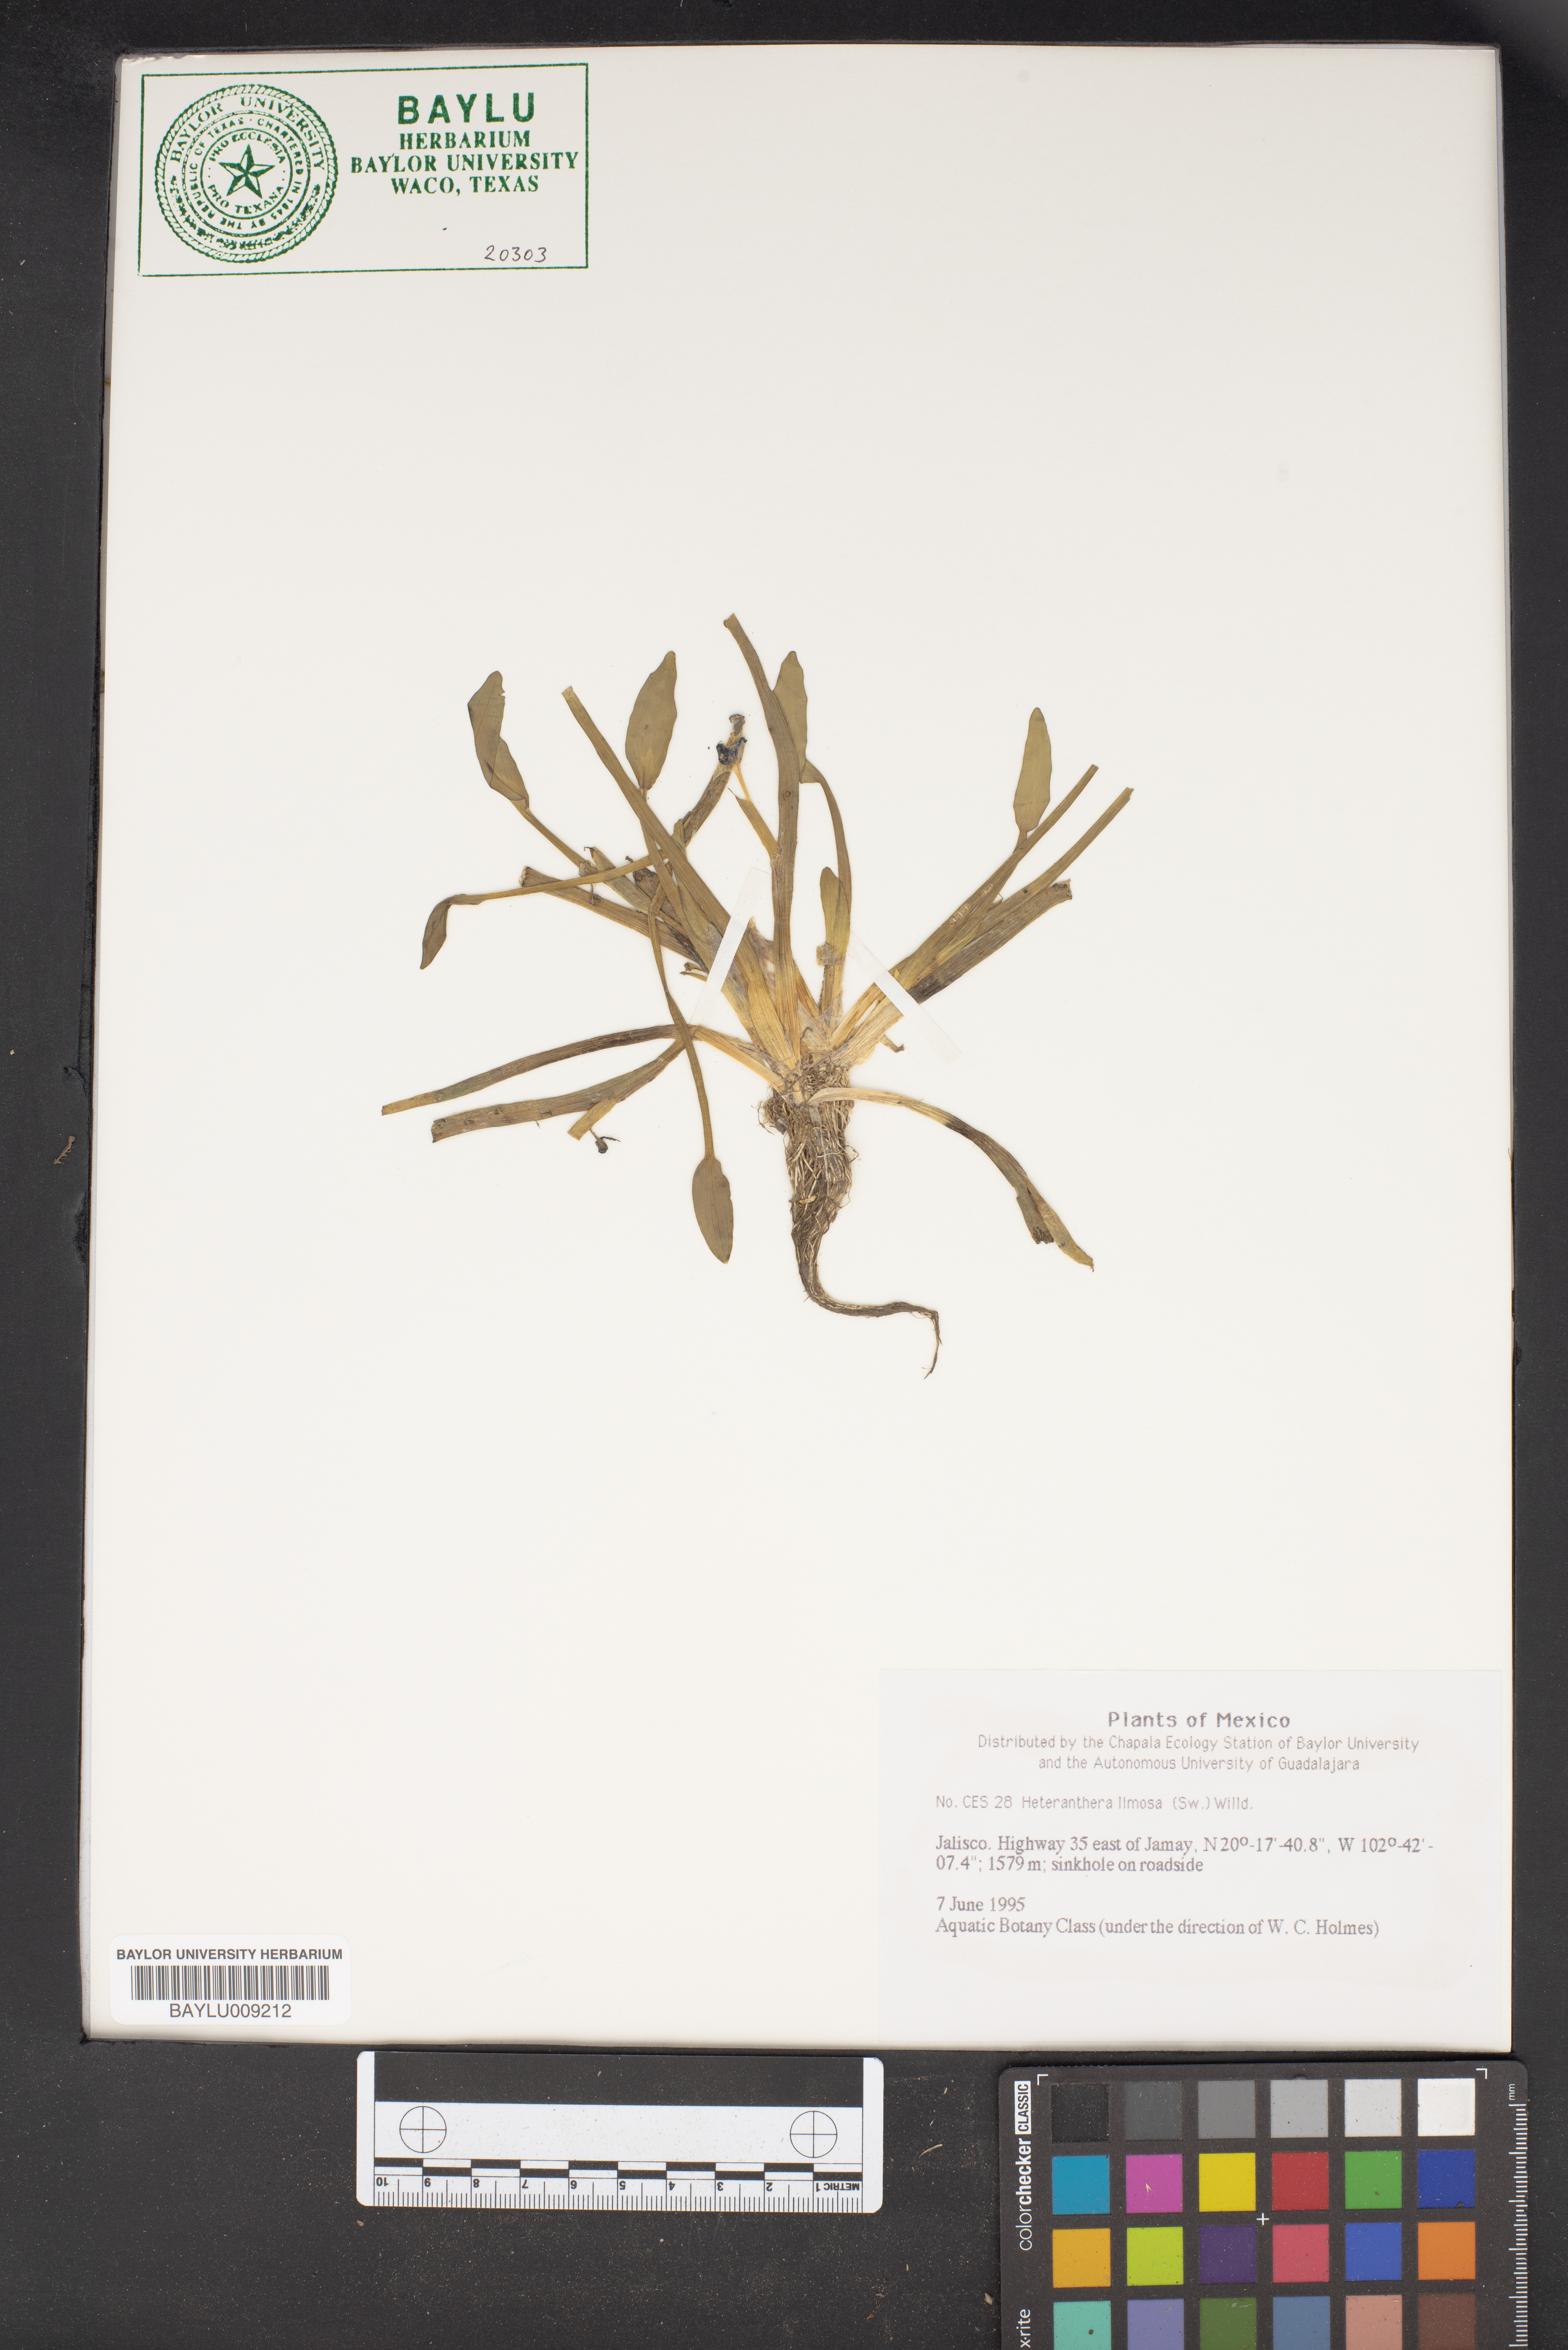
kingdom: Plantae
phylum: Tracheophyta
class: Liliopsida
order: Commelinales
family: Pontederiaceae
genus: Heteranthera
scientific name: Heteranthera limosa
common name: Blue mud-plantain
